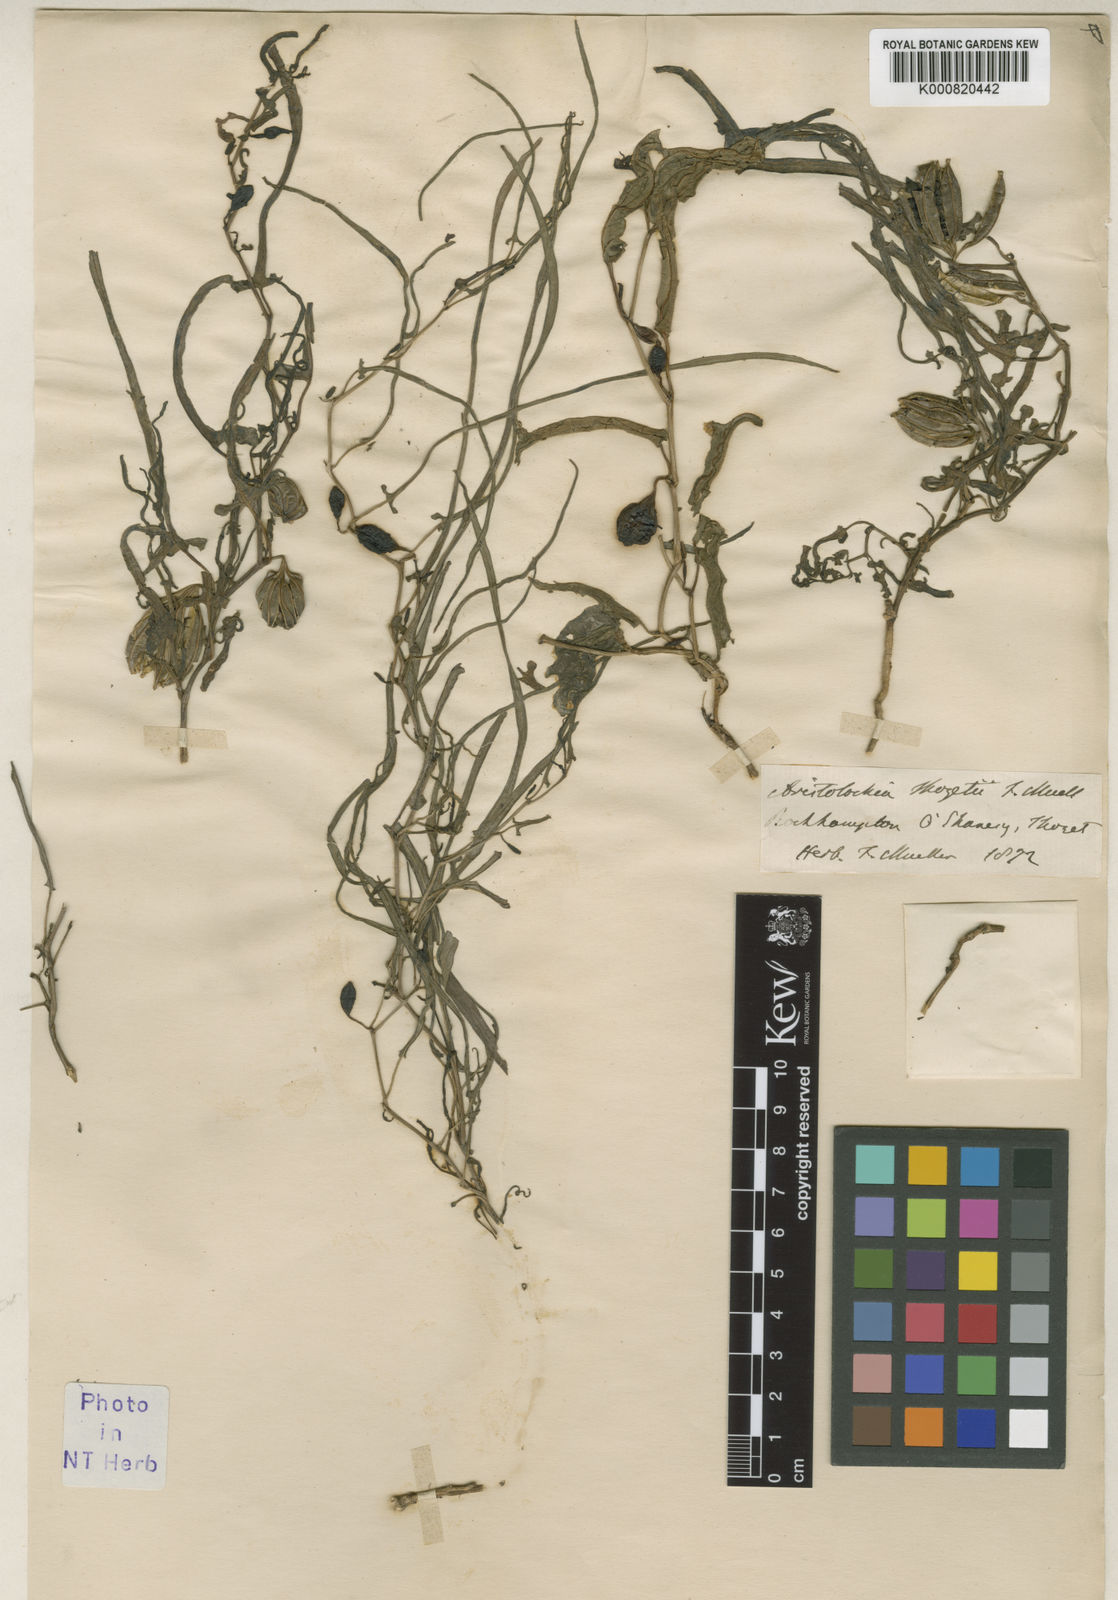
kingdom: Plantae
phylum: Tracheophyta
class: Magnoliopsida
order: Piperales
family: Aristolochiaceae
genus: Aristolochia
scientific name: Aristolochia thozetii
